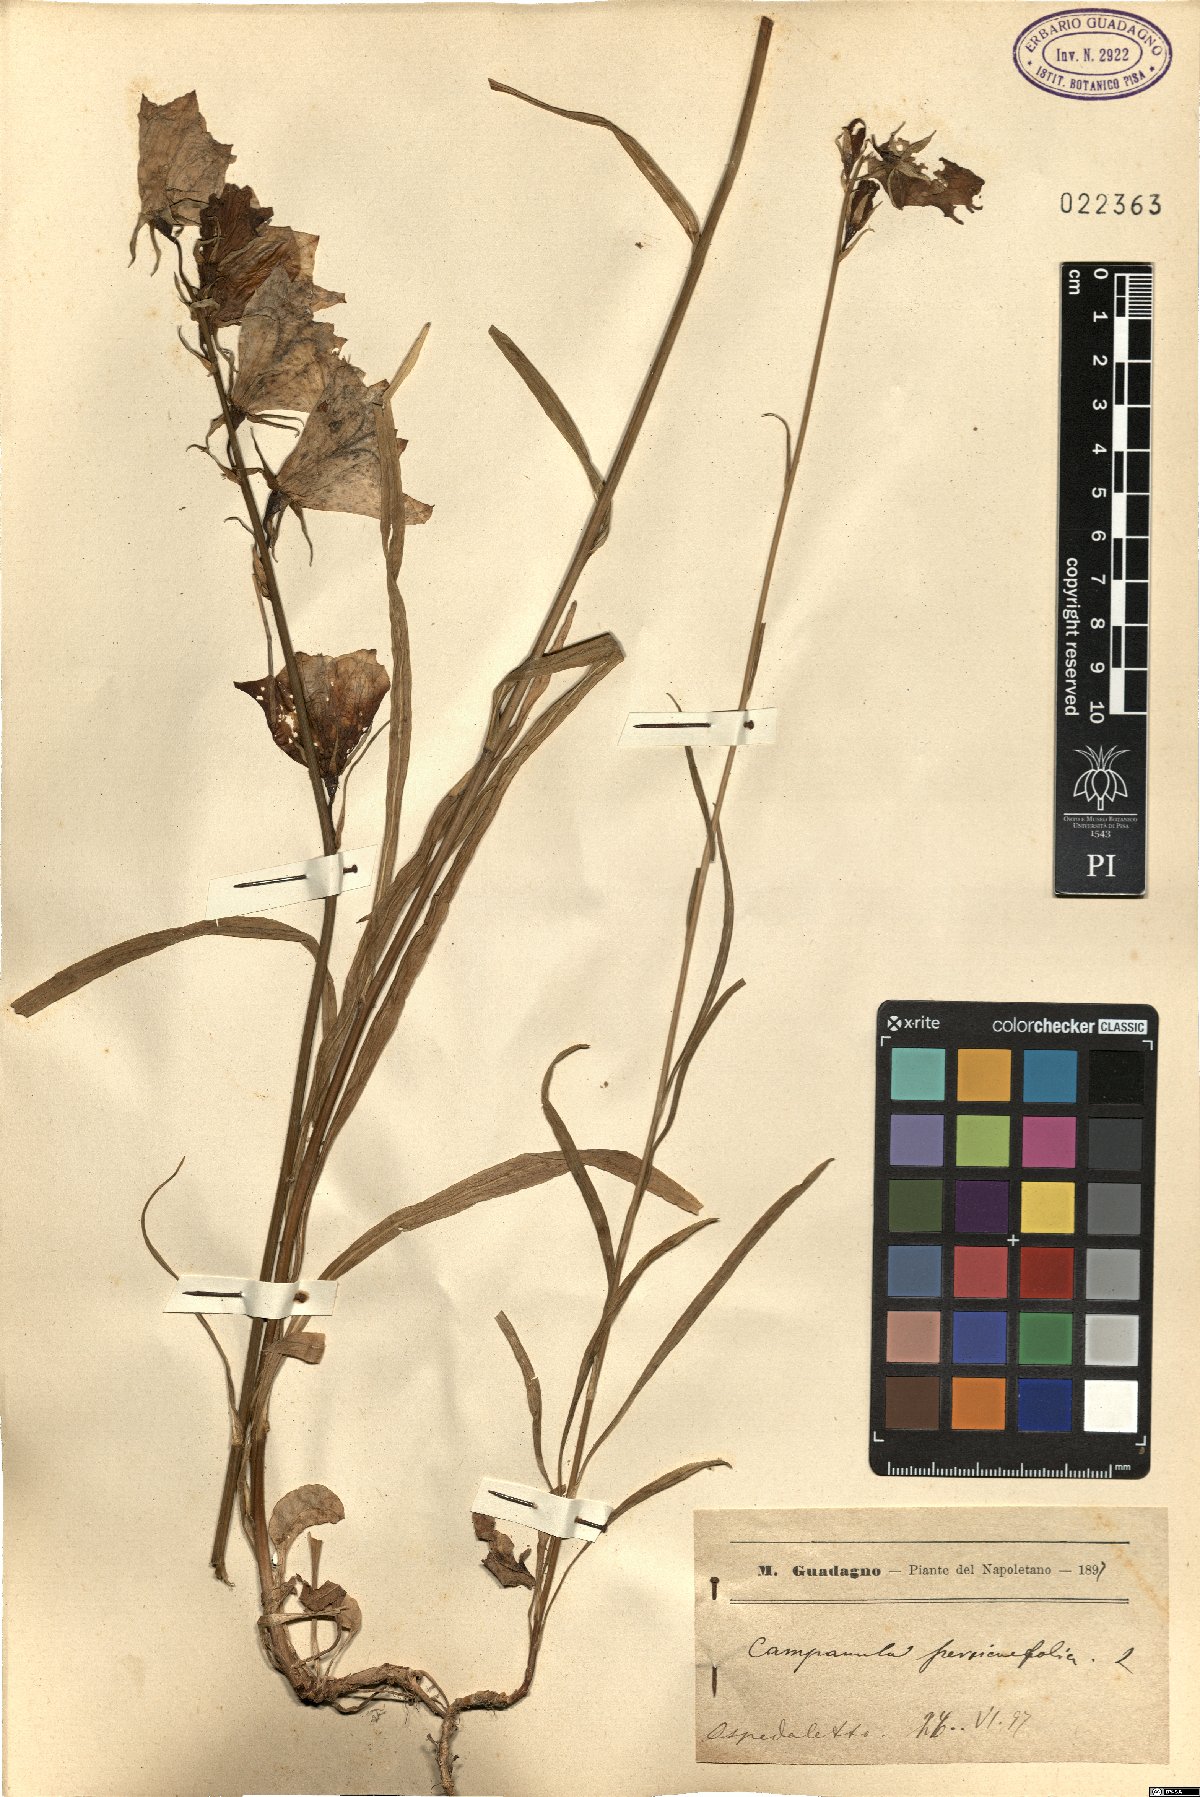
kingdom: Plantae
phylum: Tracheophyta
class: Magnoliopsida
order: Asterales
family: Campanulaceae
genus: Campanula
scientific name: Campanula persicifolia
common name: Peach-leaved bellflower
